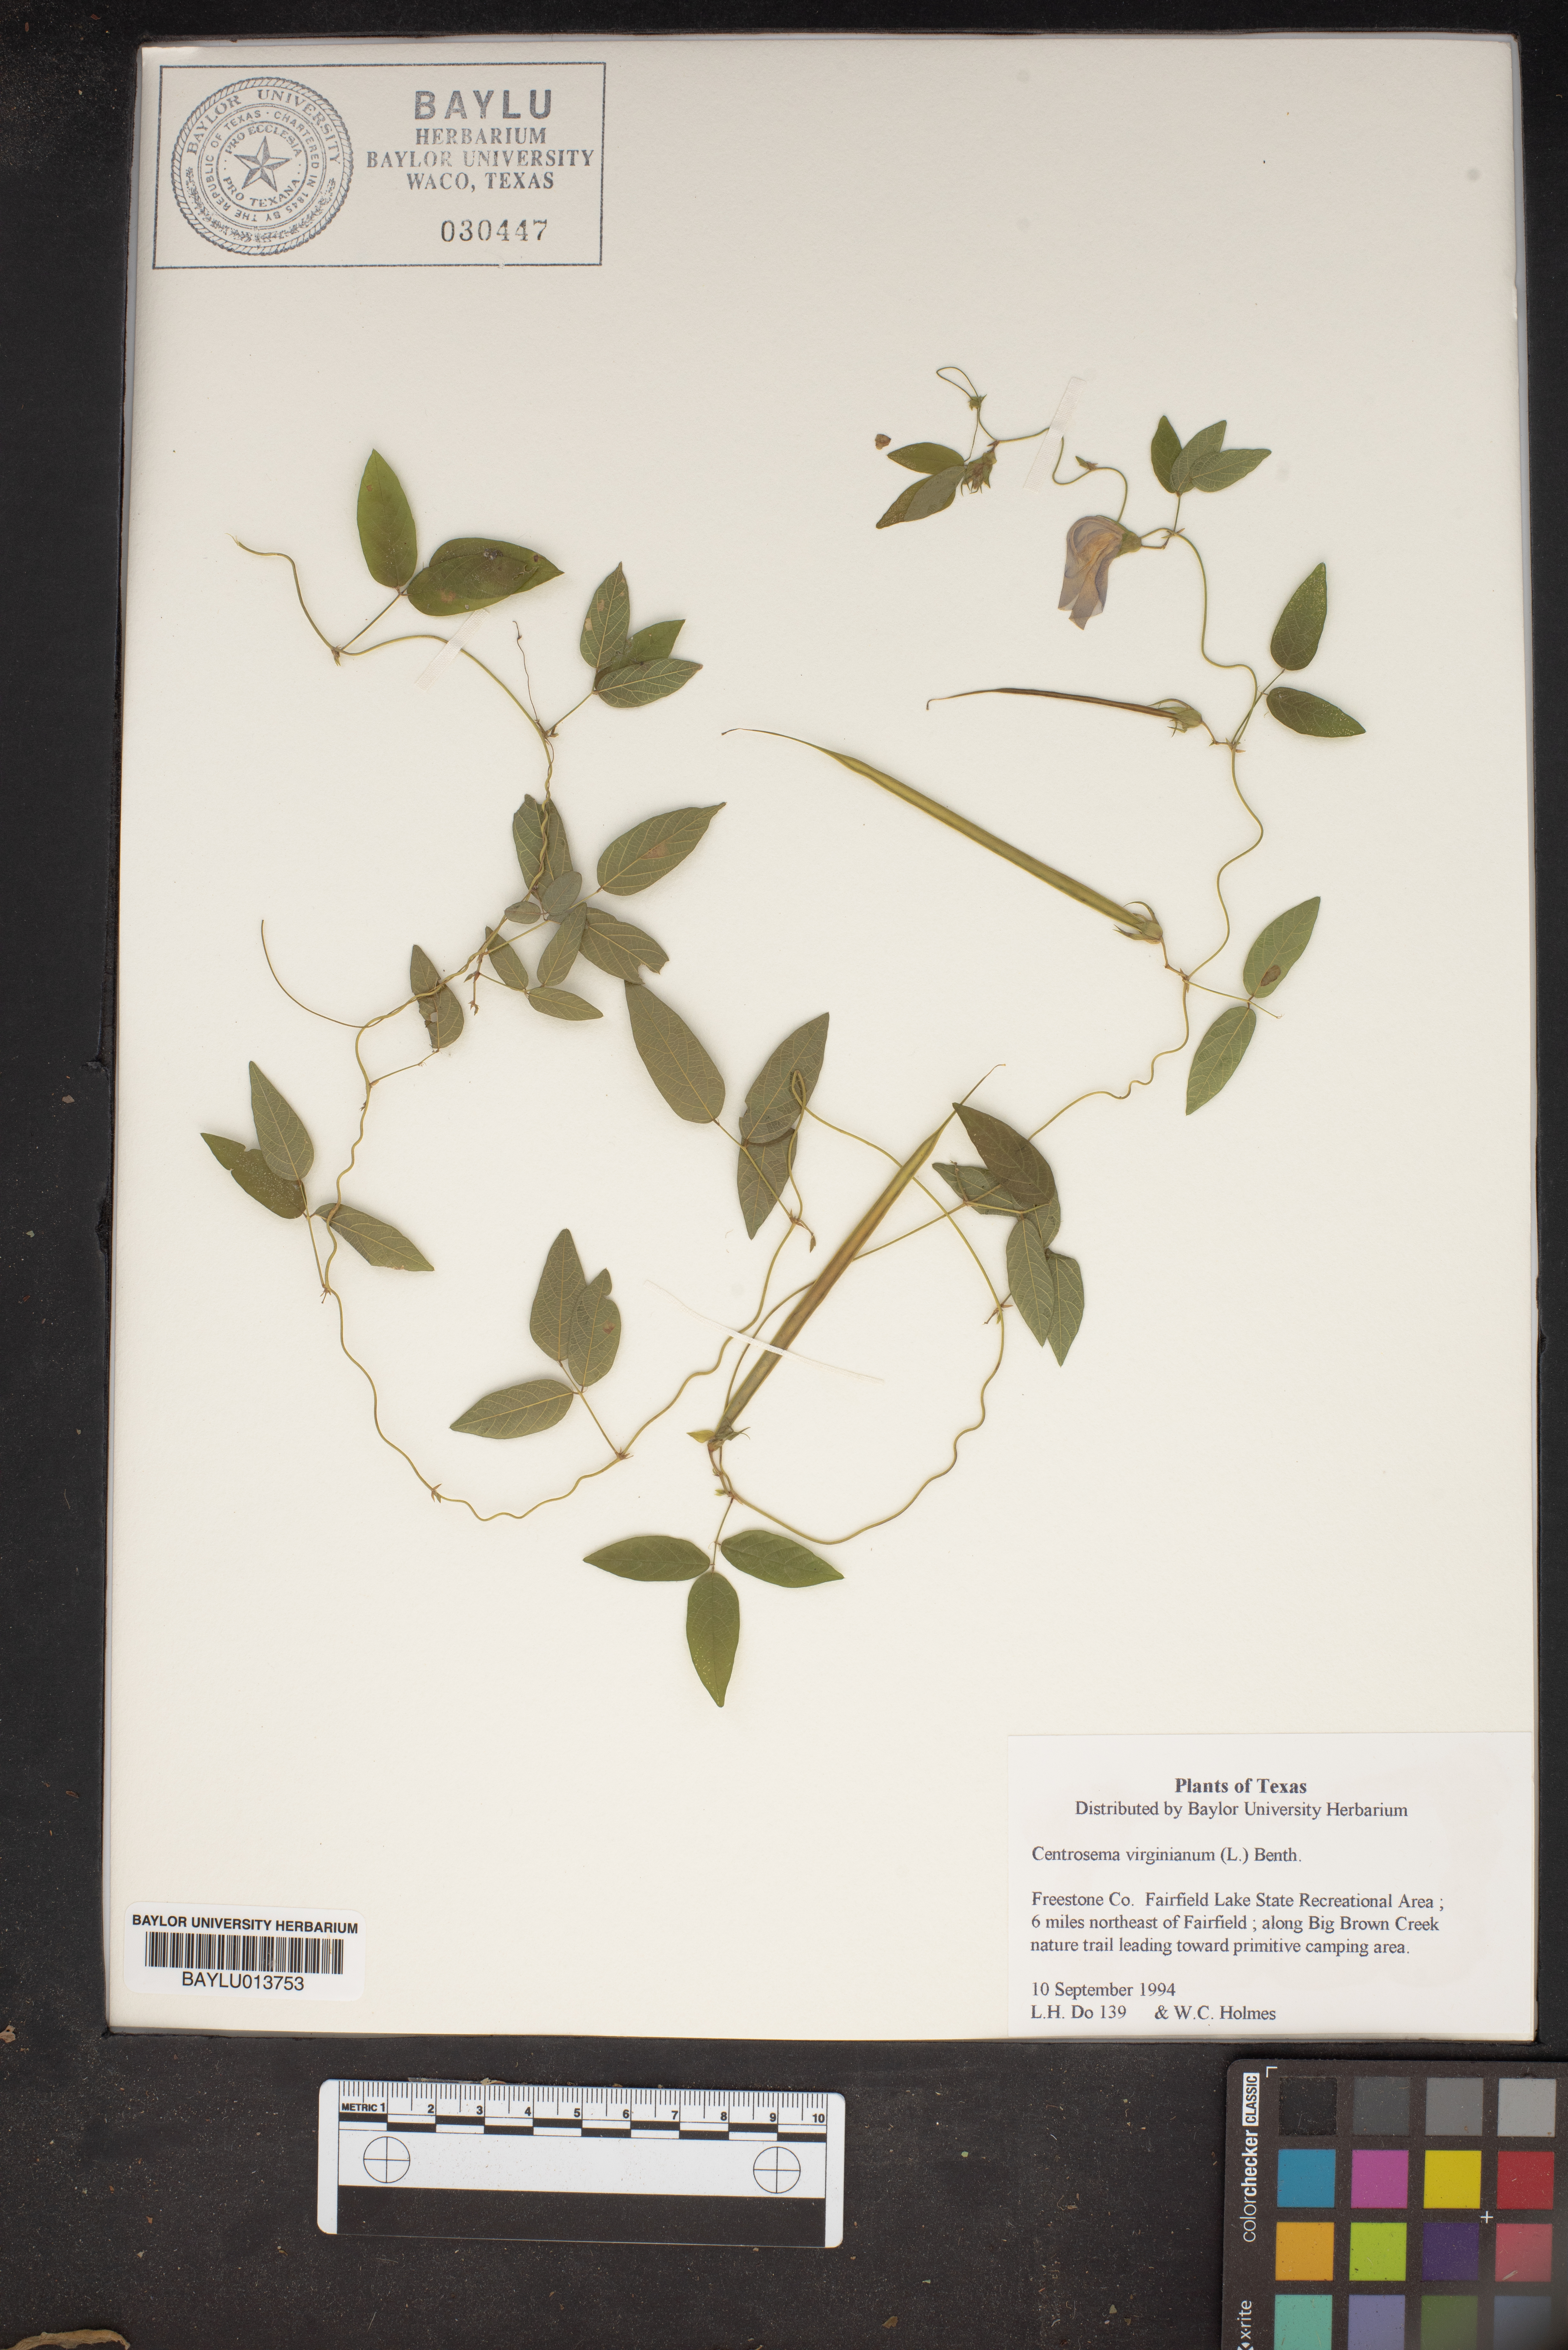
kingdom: Plantae
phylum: Tracheophyta
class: Magnoliopsida
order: Fabales
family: Fabaceae
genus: Centrosema
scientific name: Centrosema virginianum
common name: Butterfly-pea
